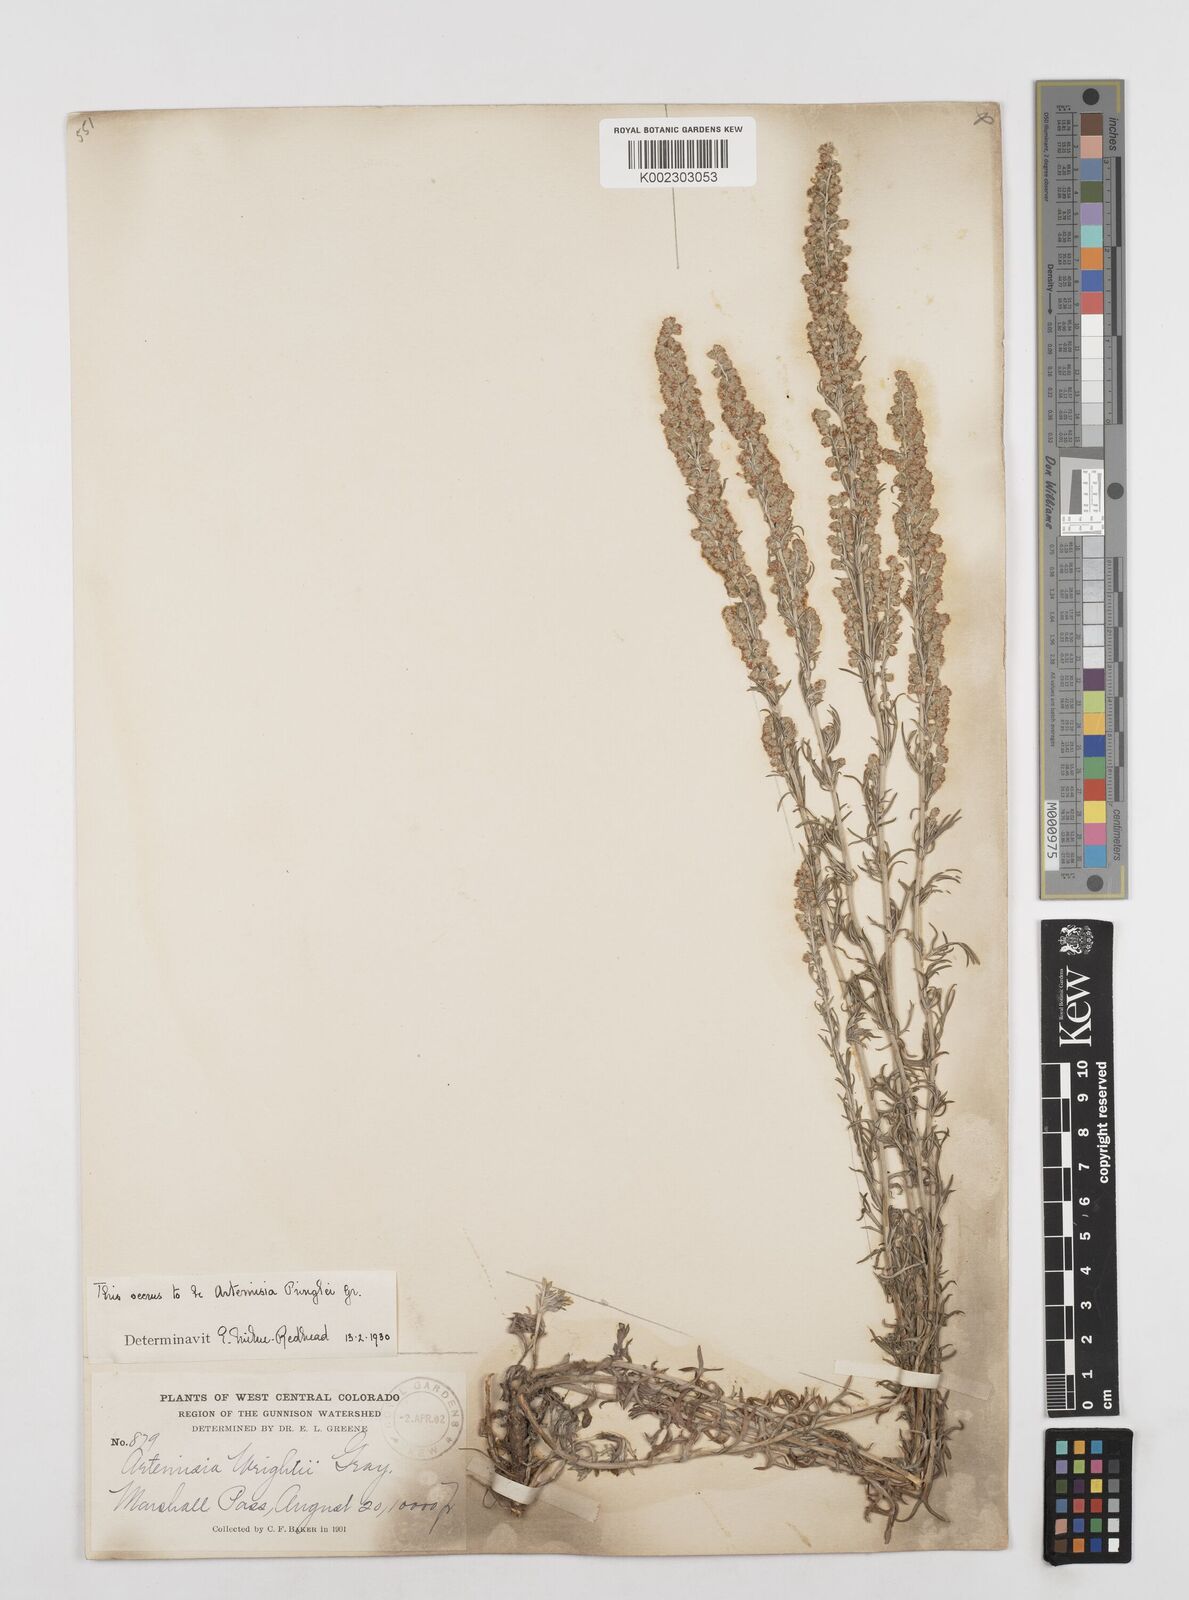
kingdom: Plantae
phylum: Tracheophyta
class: Magnoliopsida
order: Asterales
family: Asteraceae
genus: Artemisia
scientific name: Artemisia tilesii
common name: Aleutian mugwort
